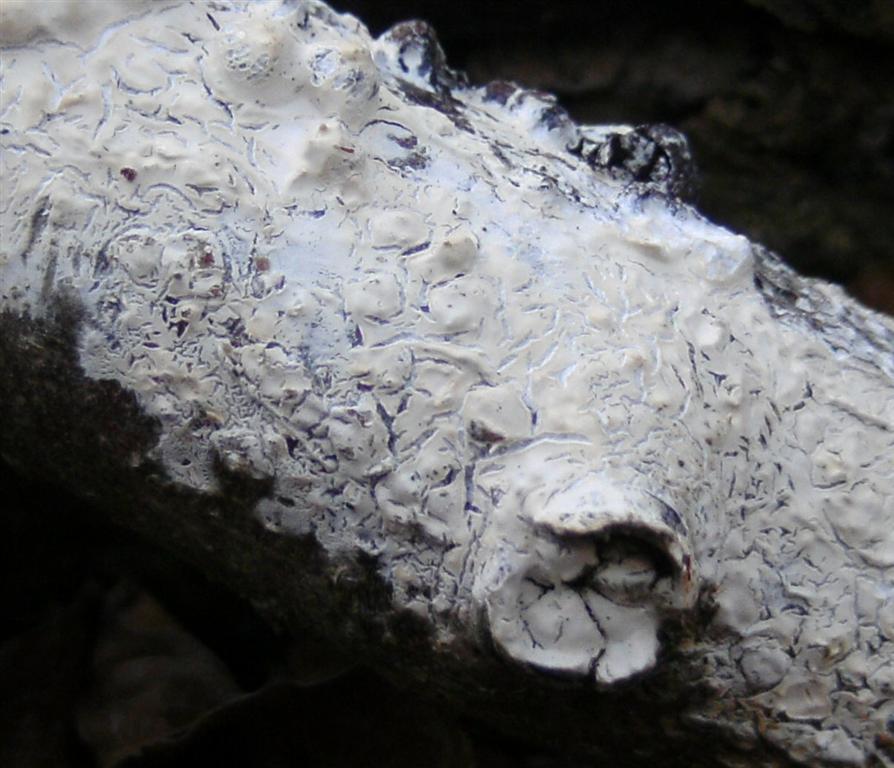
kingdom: Fungi
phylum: Basidiomycota
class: Agaricomycetes
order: Agaricales
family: Physalacriaceae
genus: Cylindrobasidium
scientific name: Cylindrobasidium evolvens
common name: sprækkehinde
